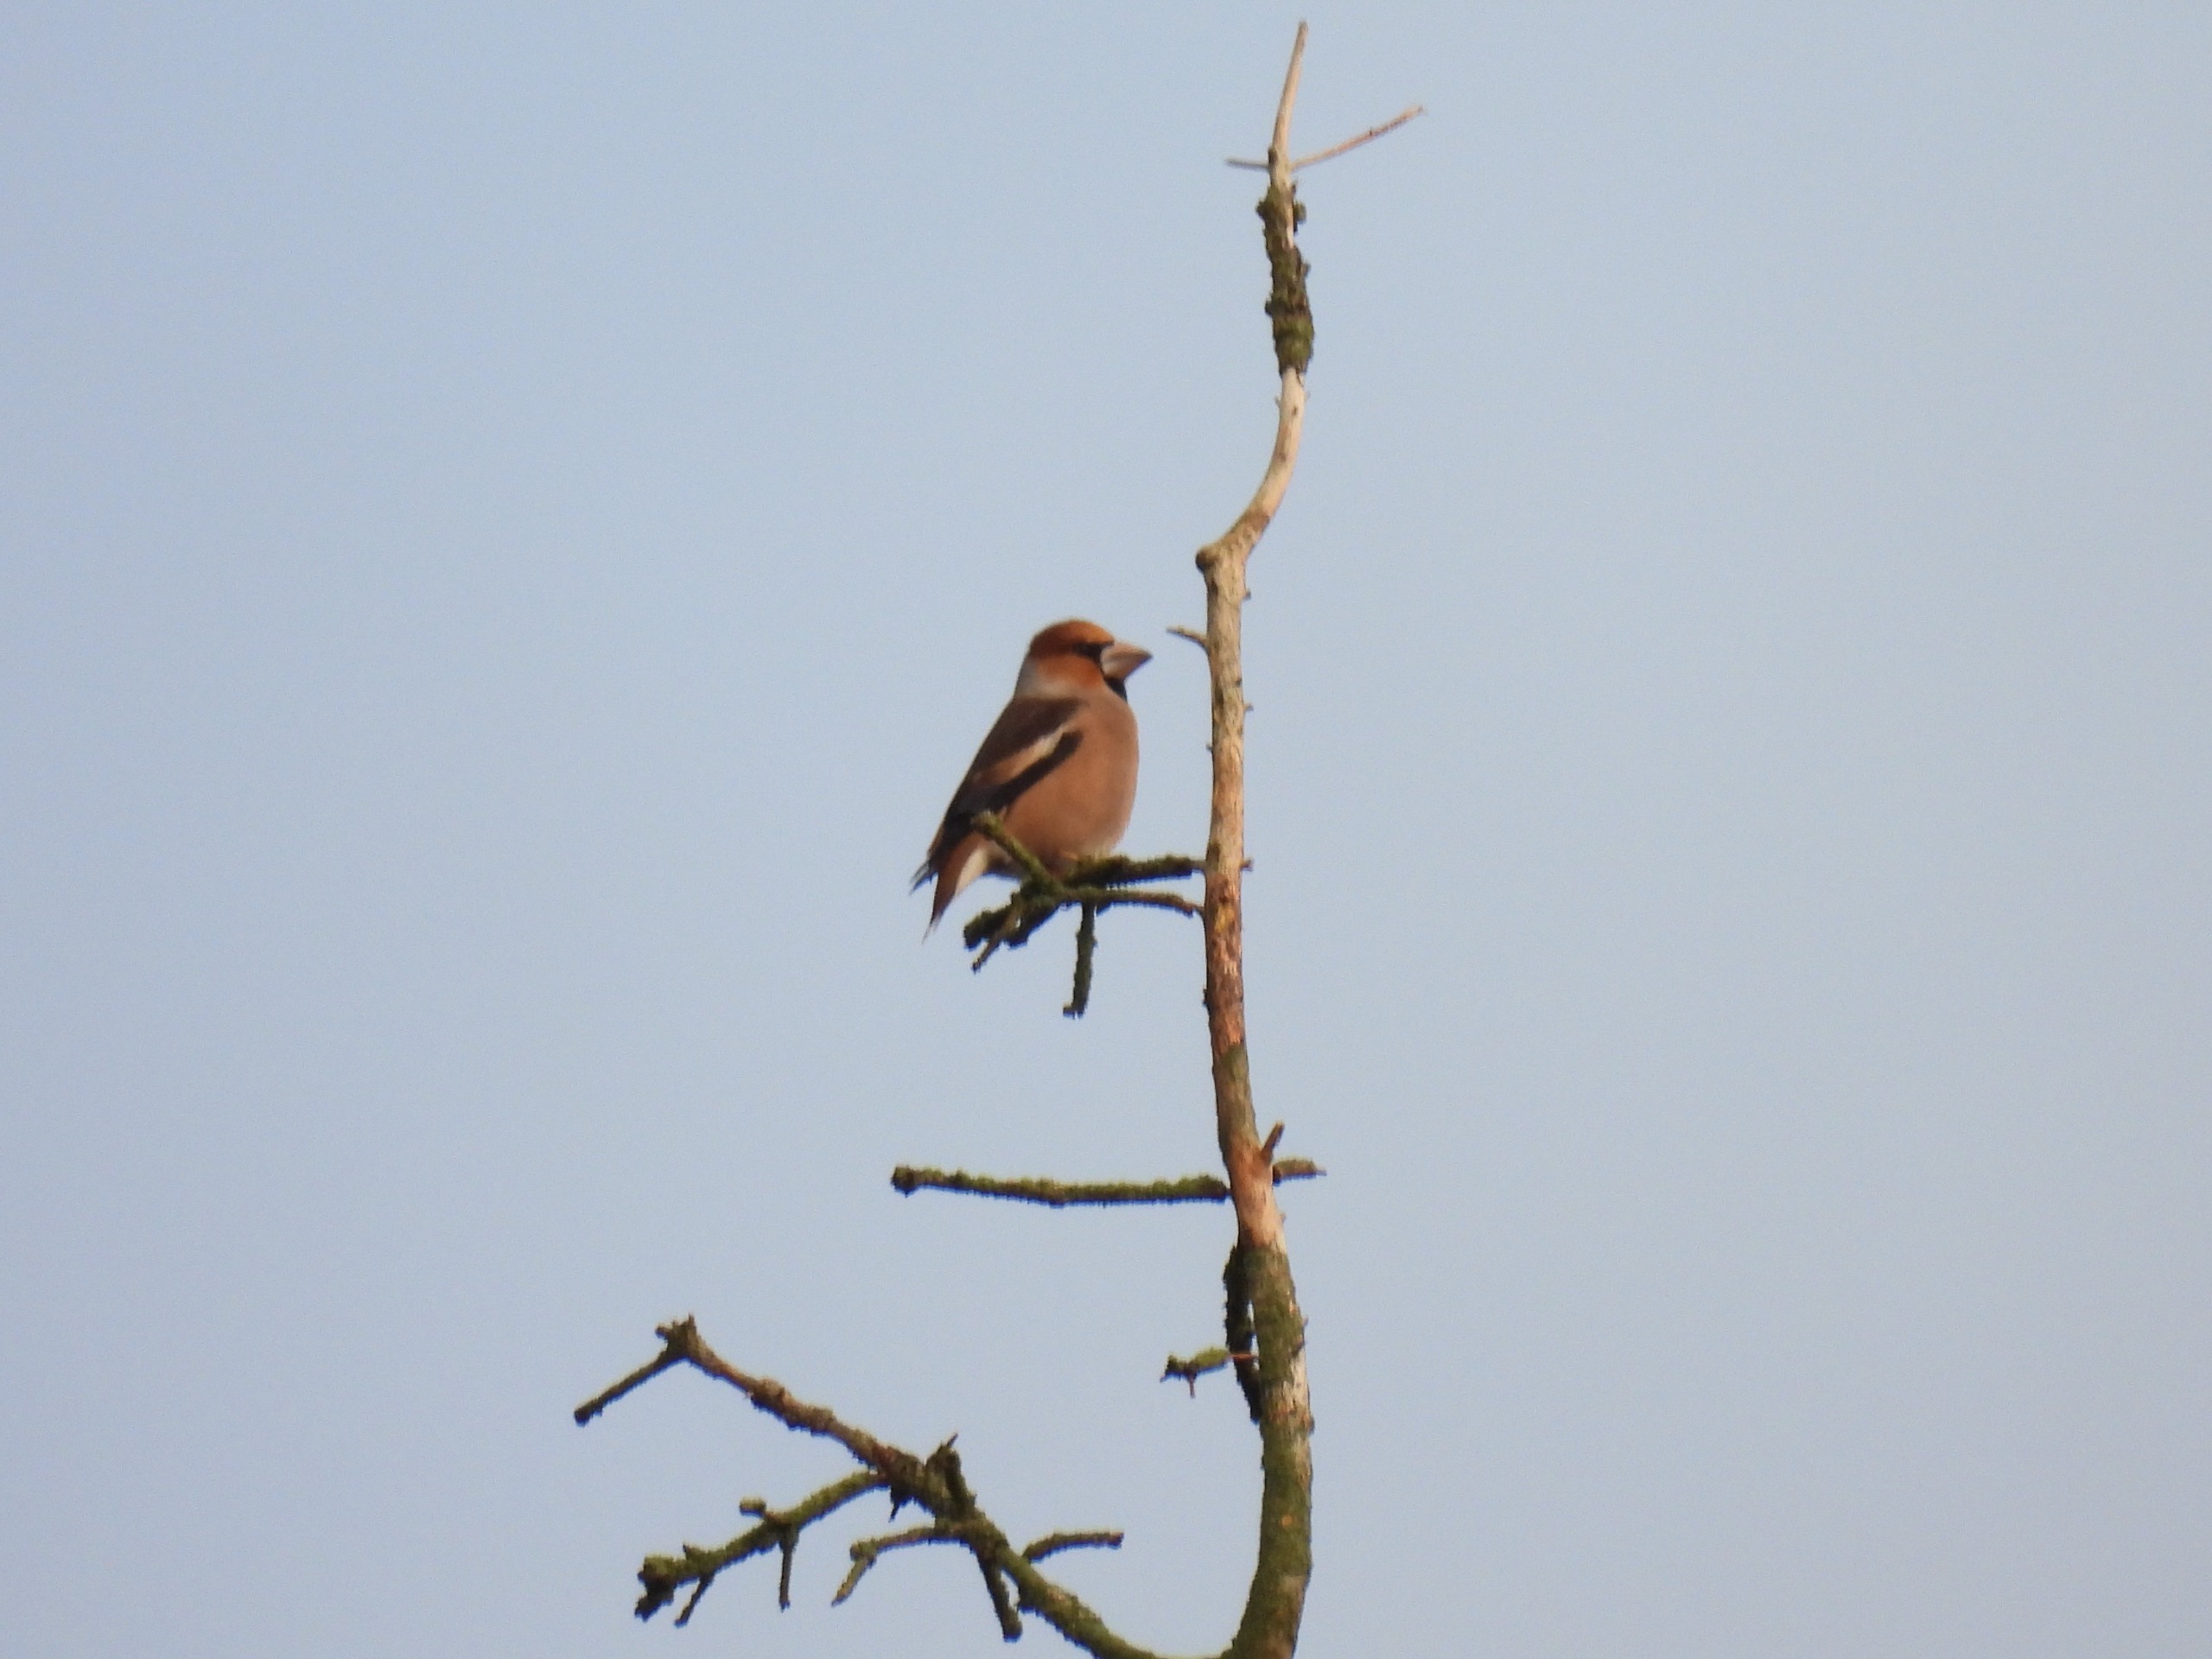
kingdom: Animalia
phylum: Chordata
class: Aves
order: Passeriformes
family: Fringillidae
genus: Coccothraustes
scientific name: Coccothraustes coccothraustes
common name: Kernebider
